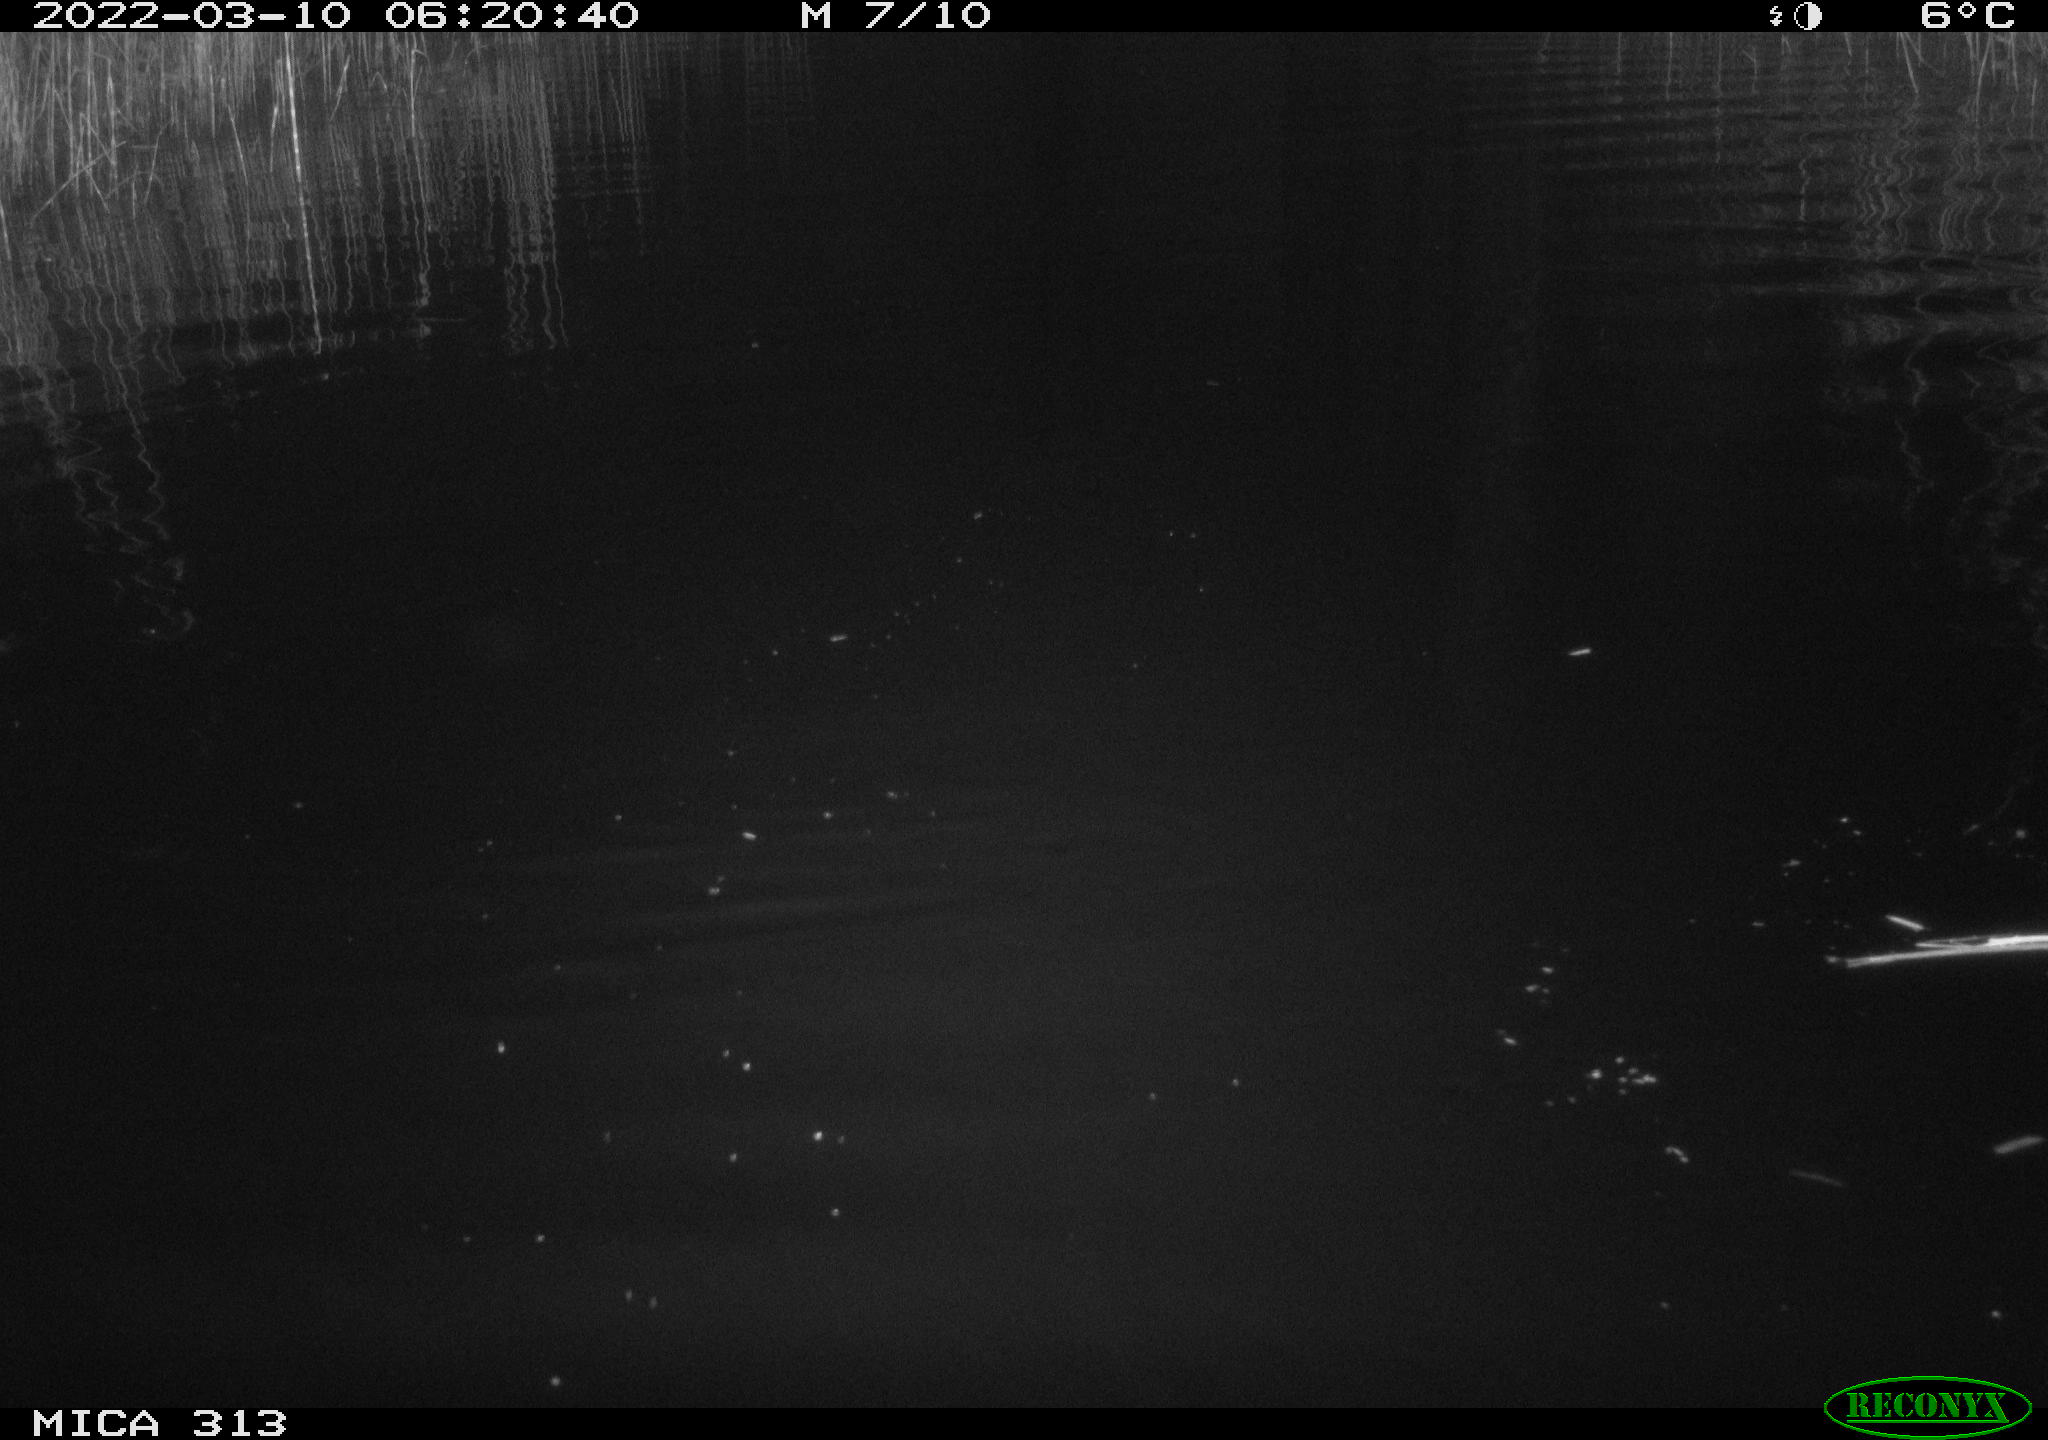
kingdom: Animalia
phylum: Chordata
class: Mammalia
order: Rodentia
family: Muridae
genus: Rattus
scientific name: Rattus norvegicus
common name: Brown rat
